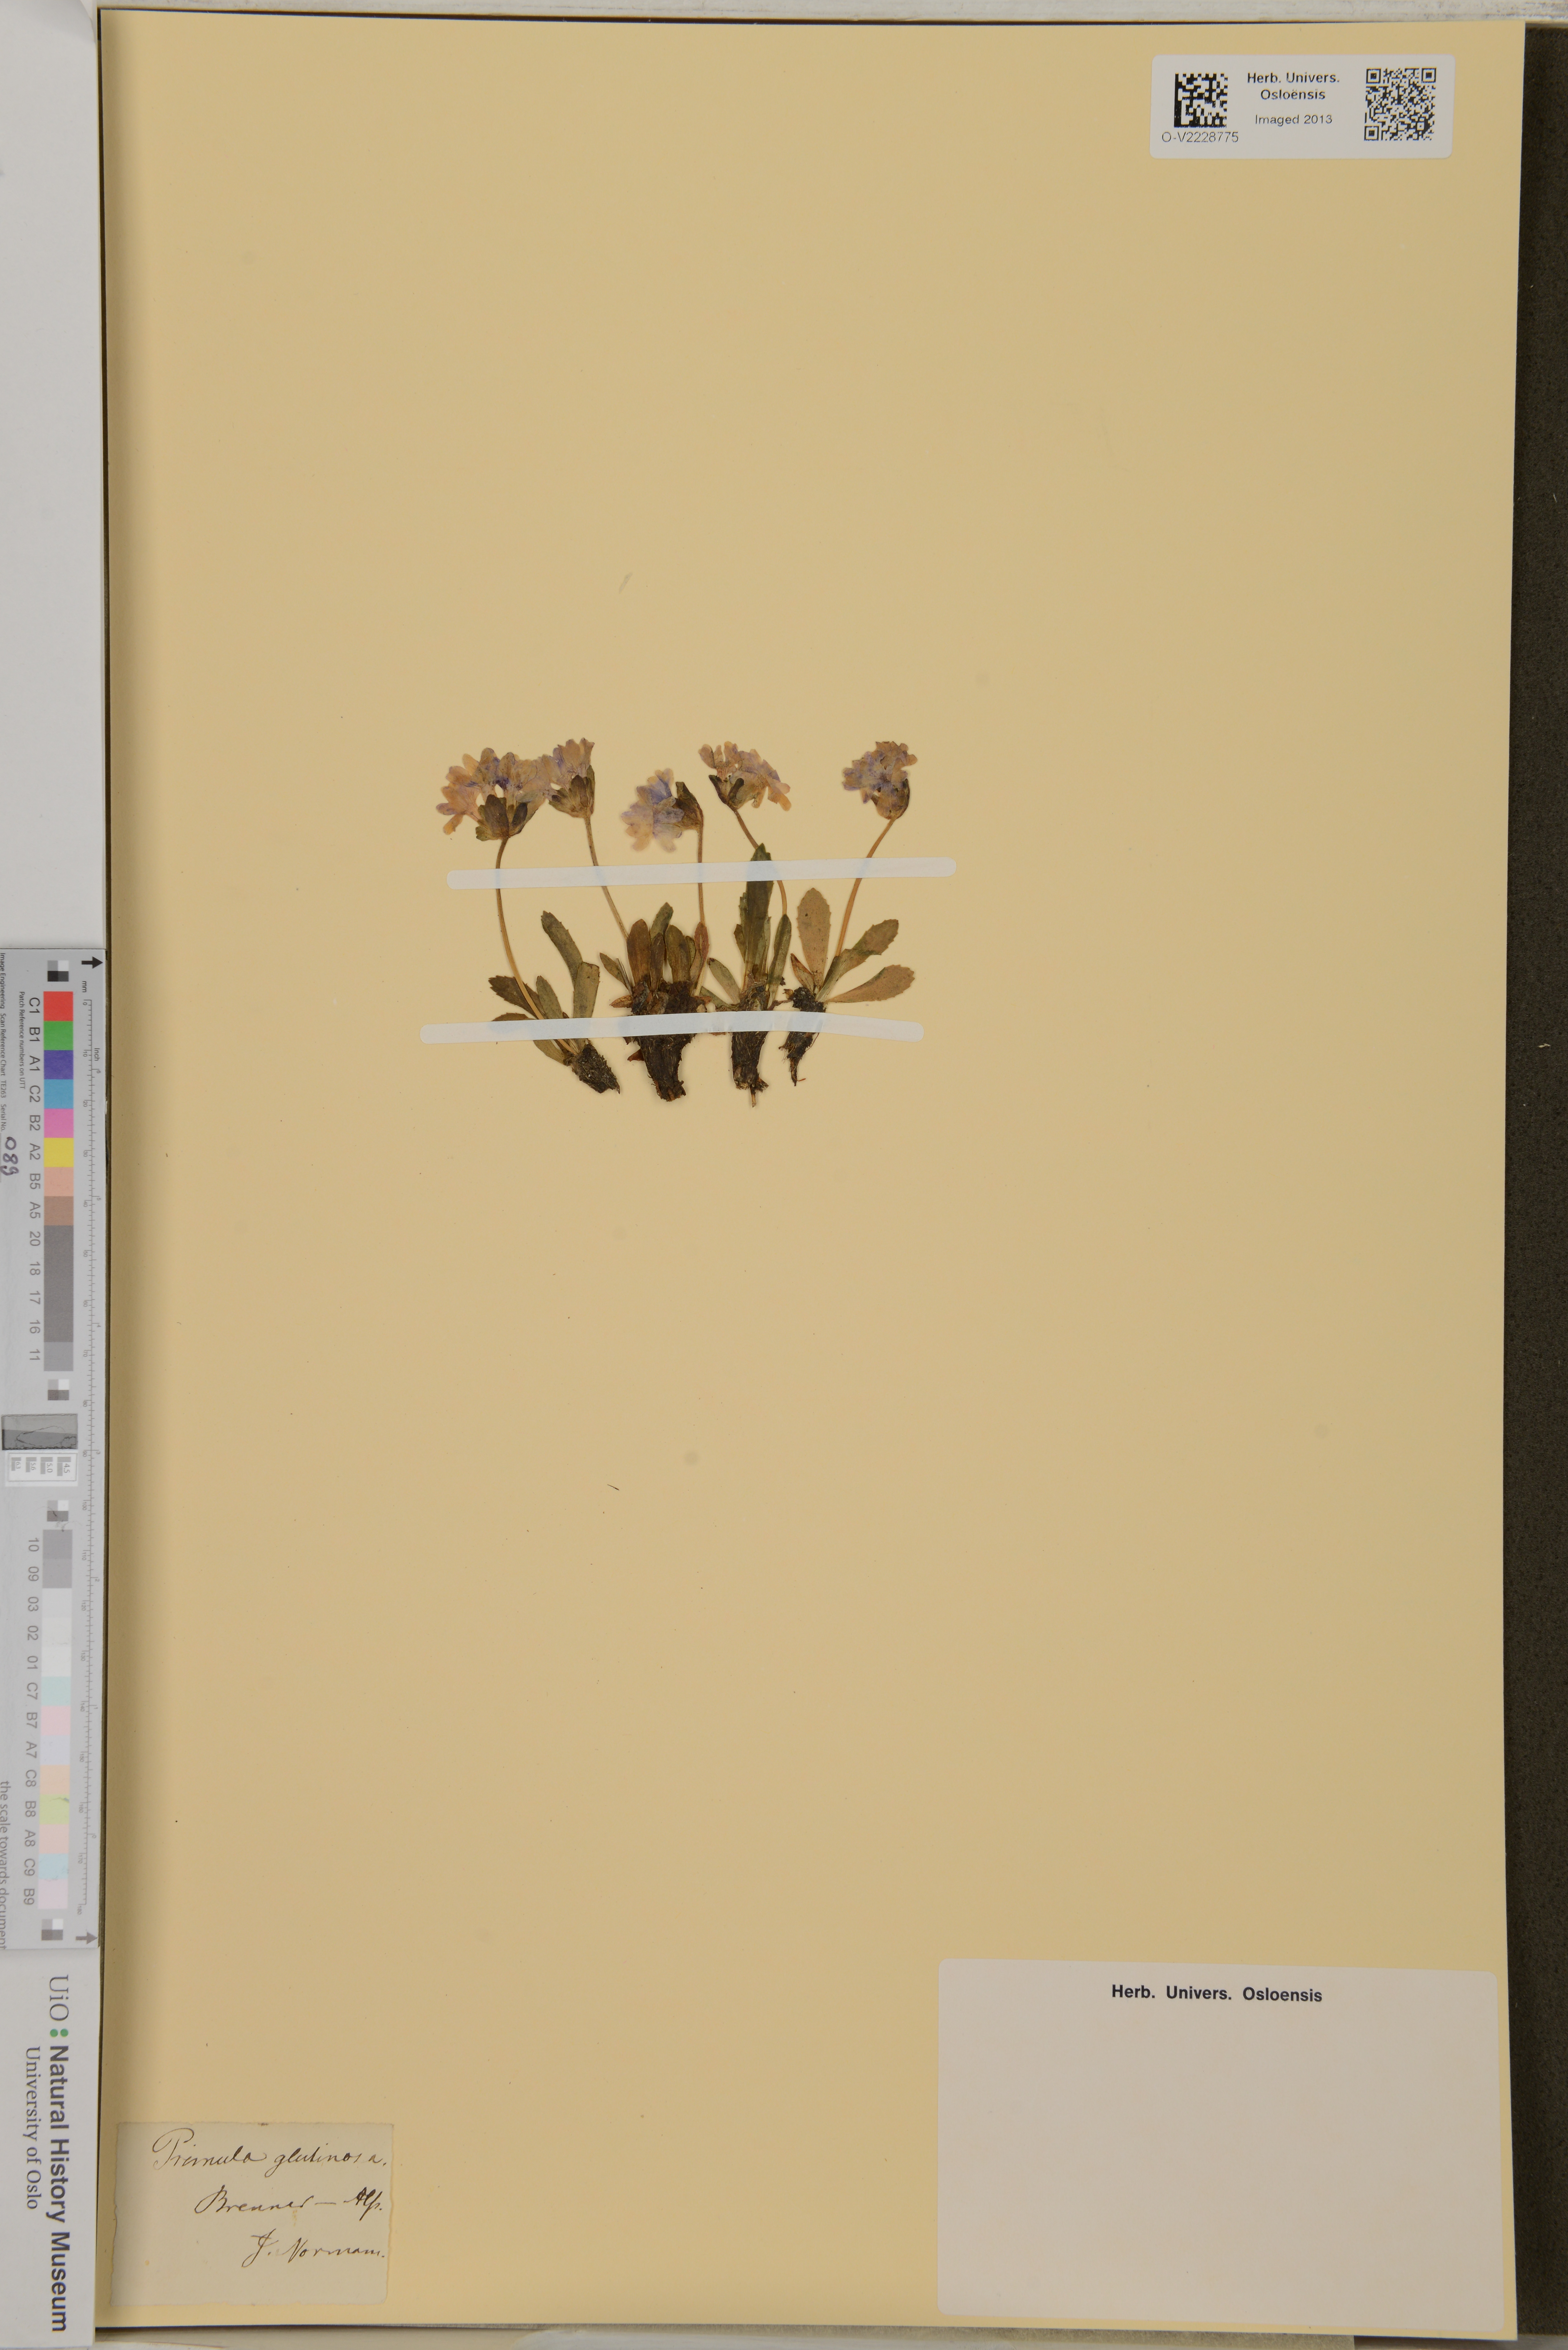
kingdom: Plantae
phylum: Tracheophyta
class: Magnoliopsida
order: Ericales
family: Primulaceae
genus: Primula
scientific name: Primula glutinosa
